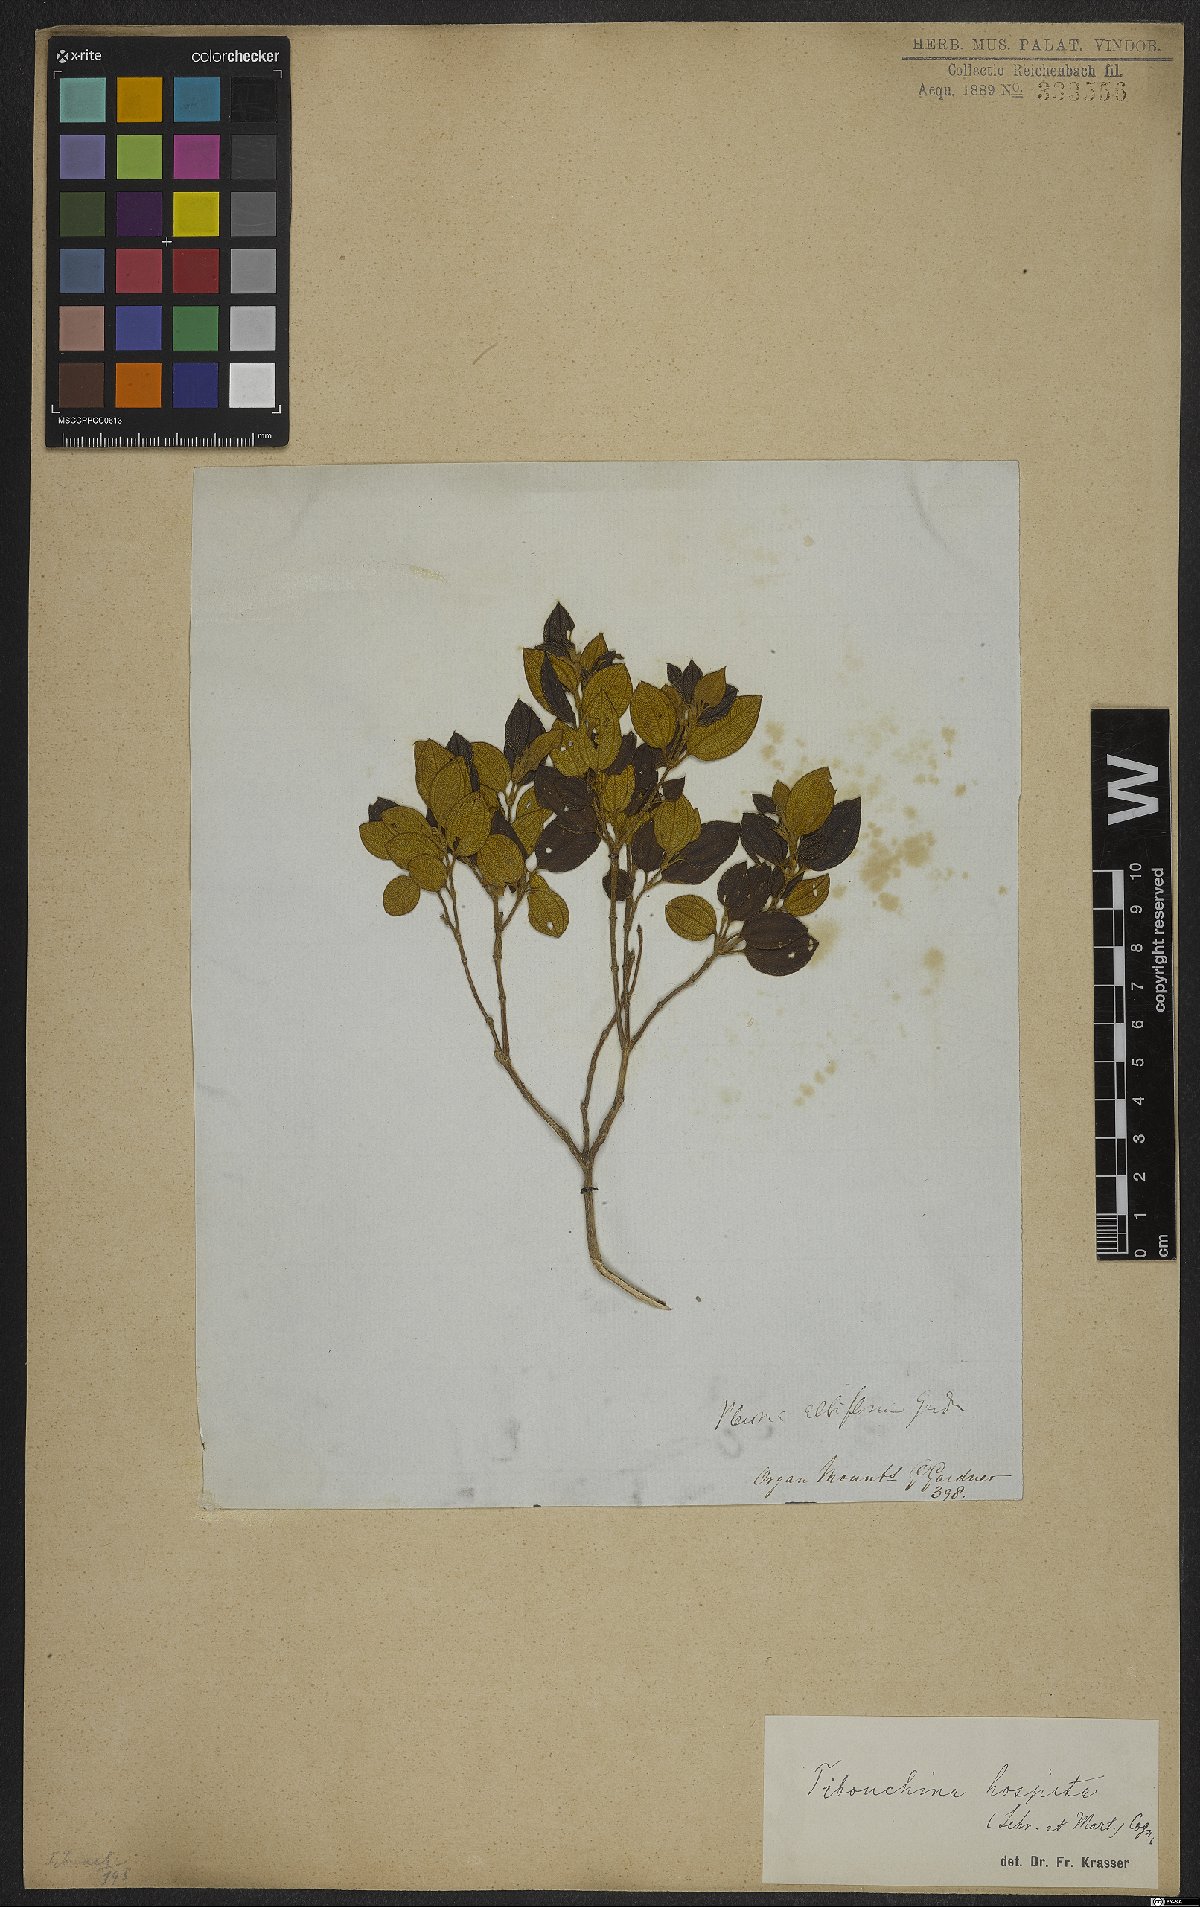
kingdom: Plantae
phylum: Tracheophyta
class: Magnoliopsida
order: Myrtales
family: Melastomataceae
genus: Pleroma
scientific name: Pleroma hospitum
